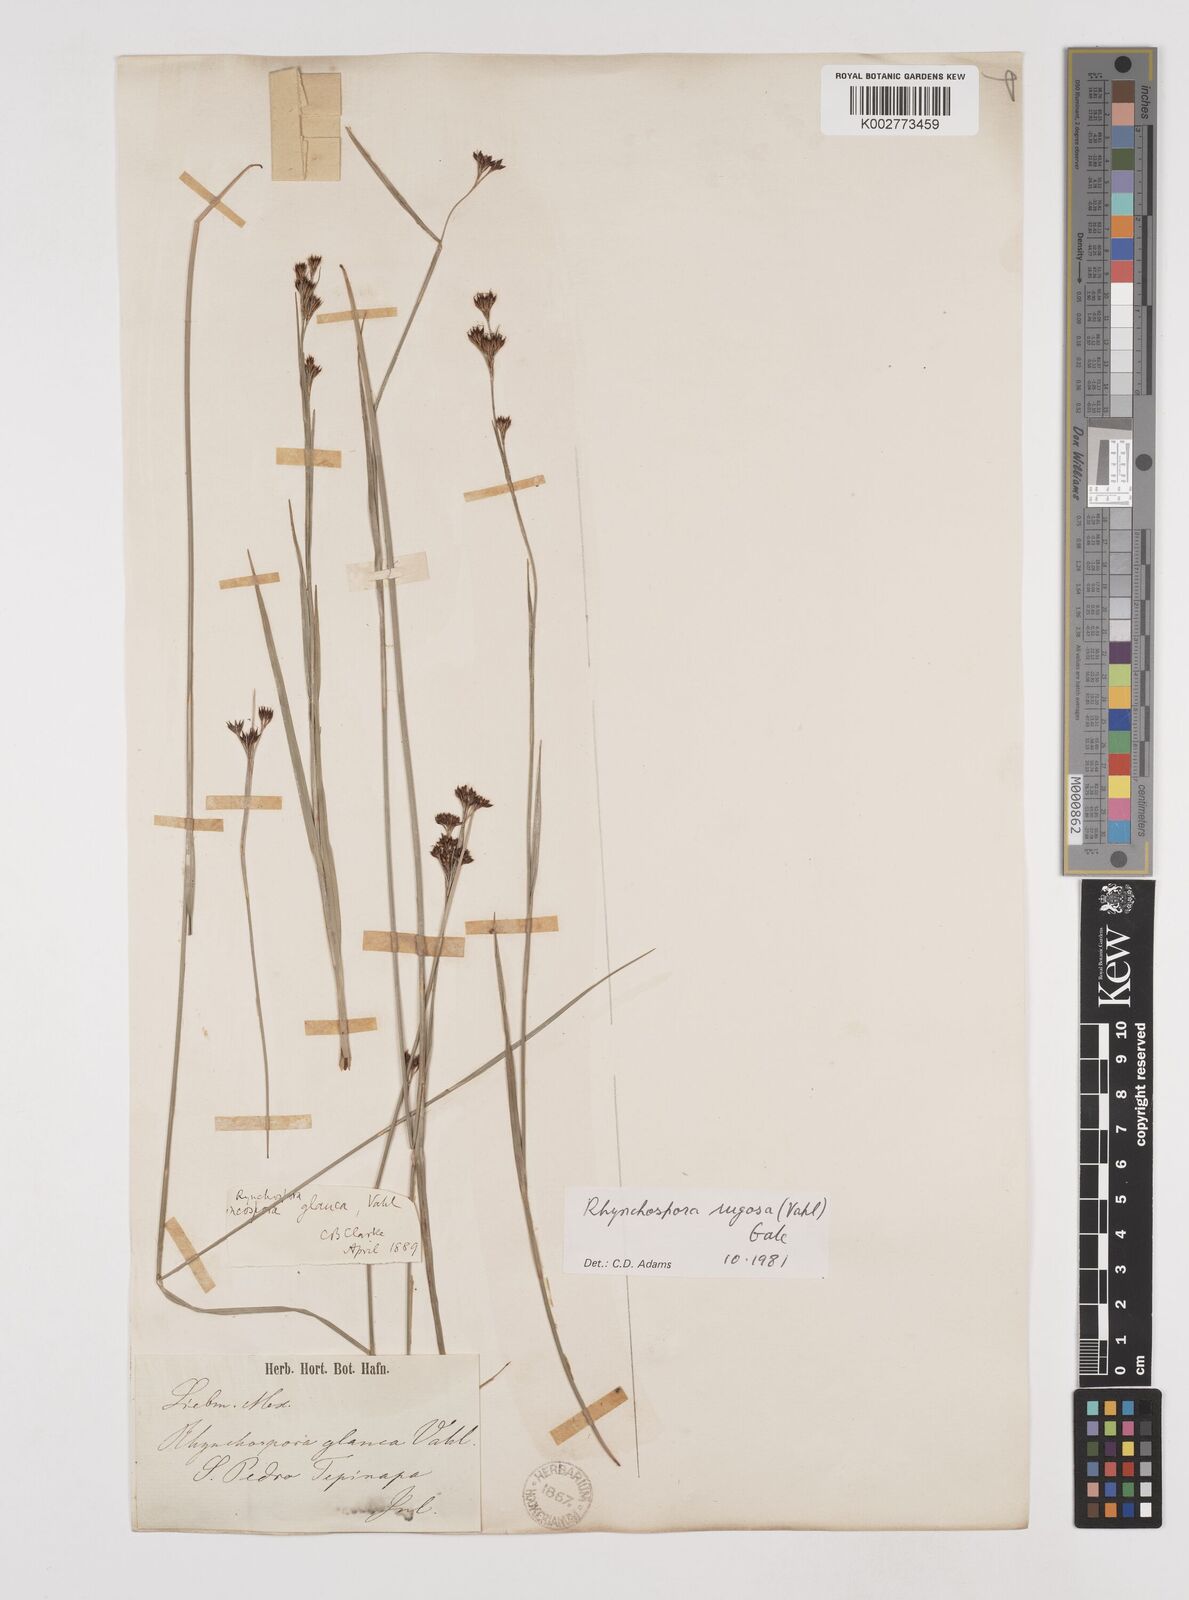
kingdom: Plantae
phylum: Tracheophyta
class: Liliopsida
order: Poales
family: Cyperaceae
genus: Rhynchospora
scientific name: Rhynchospora rugosa
